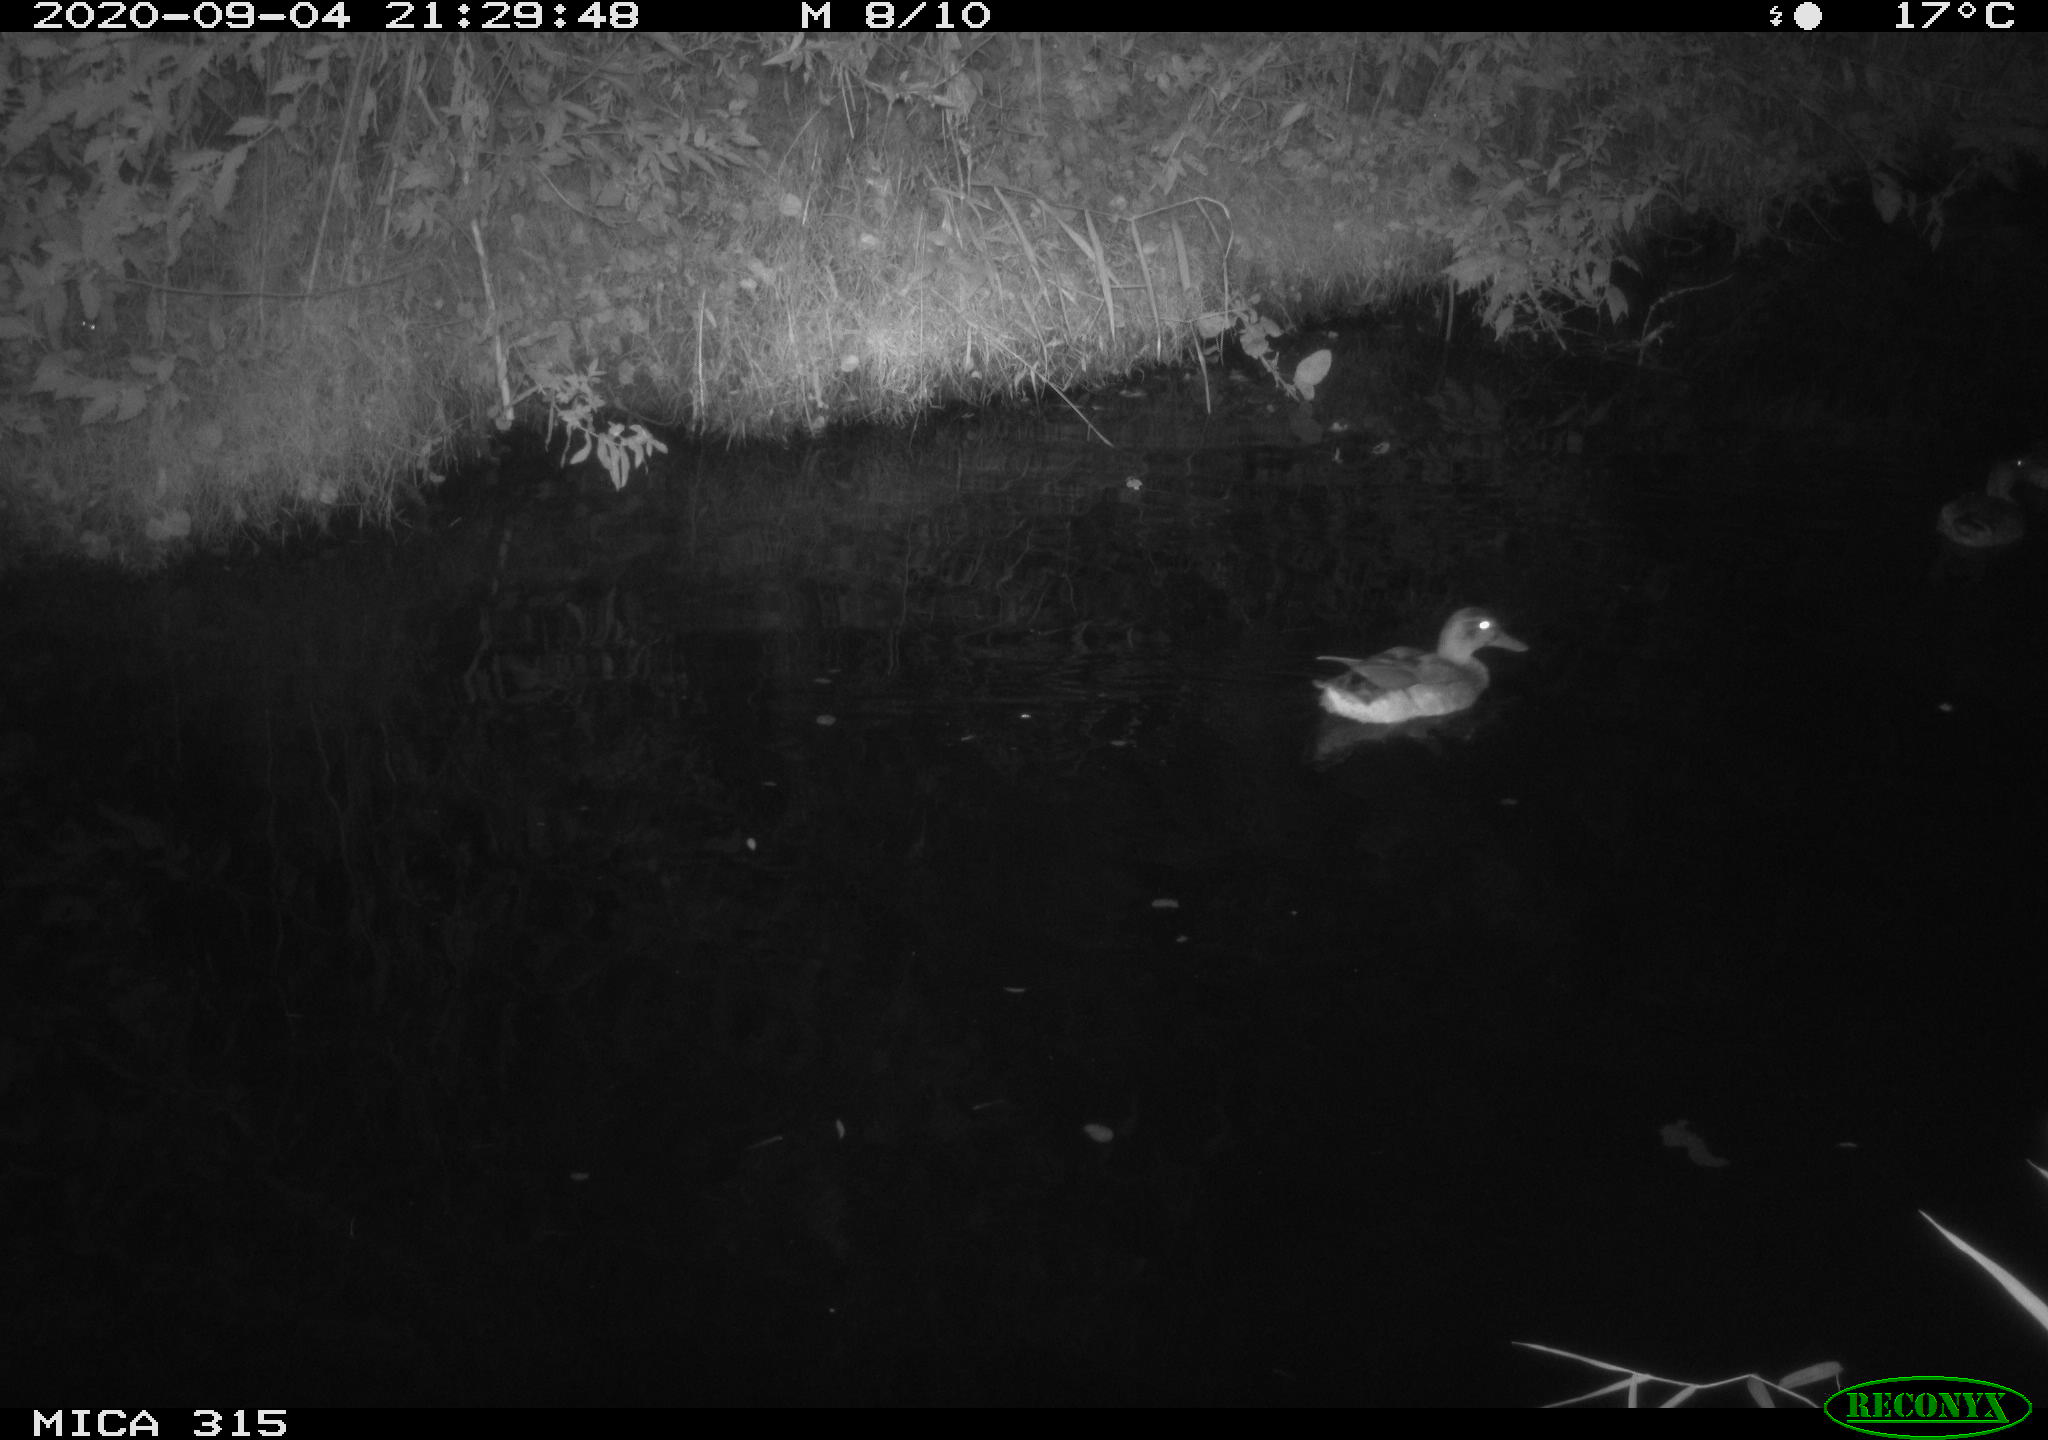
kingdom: Animalia
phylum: Chordata
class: Aves
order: Anseriformes
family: Anatidae
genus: Anas
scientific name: Anas platyrhynchos
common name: Mallard
